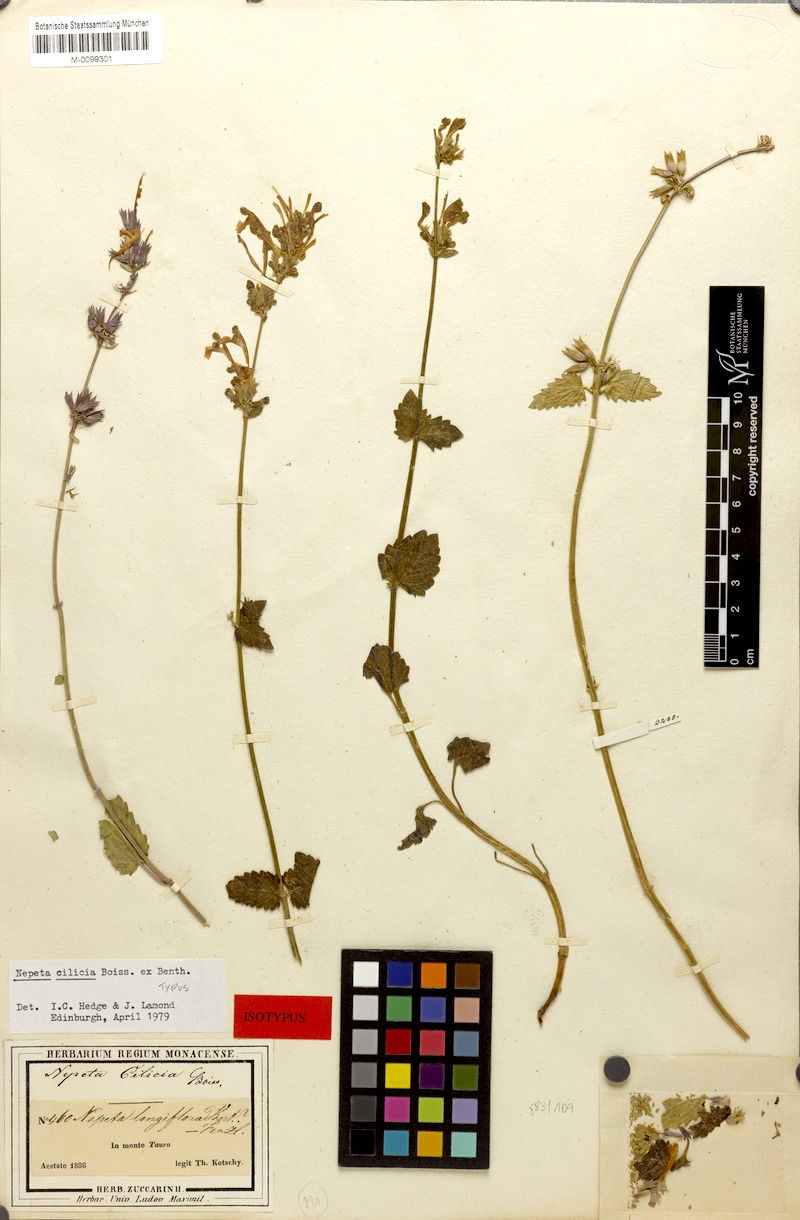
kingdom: Plantae
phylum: Tracheophyta
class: Magnoliopsida
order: Lamiales
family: Lamiaceae
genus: Nepeta
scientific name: Nepeta cilicica
